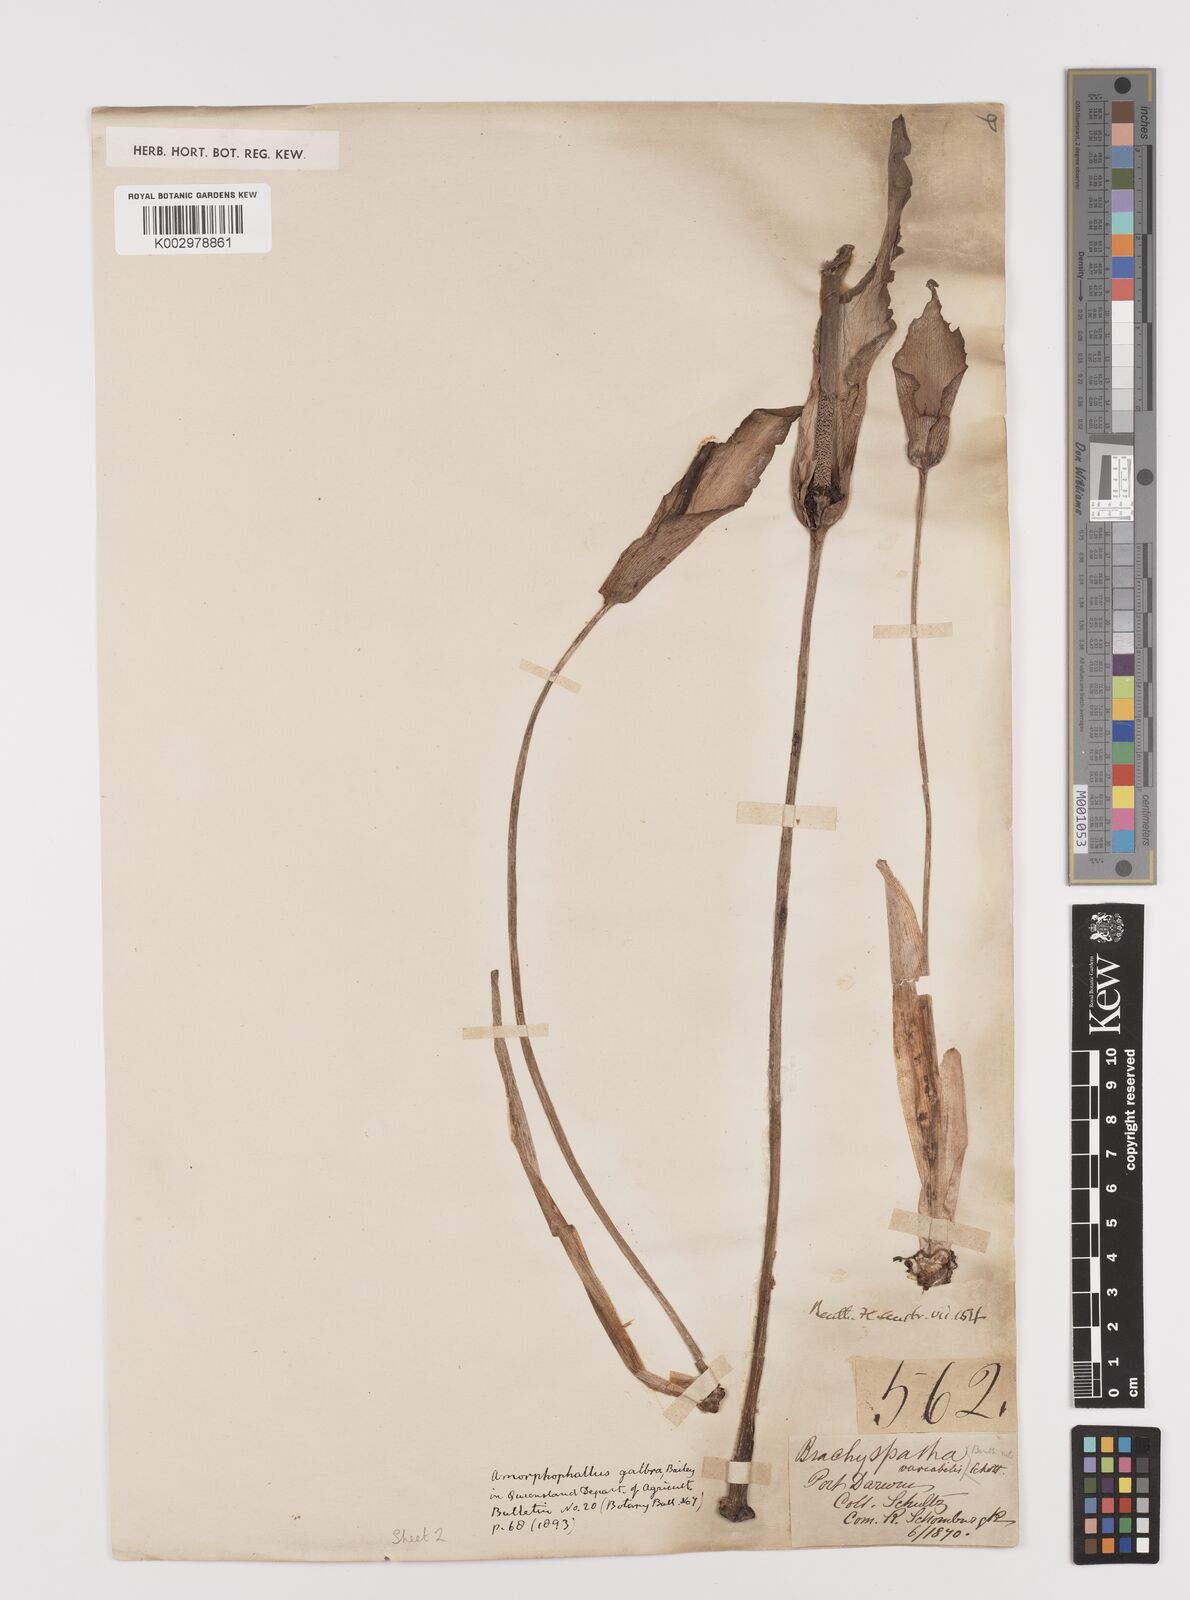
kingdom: Plantae
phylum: Tracheophyta
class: Liliopsida
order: Alismatales
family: Araceae
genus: Amorphophallus
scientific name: Amorphophallus galbra
